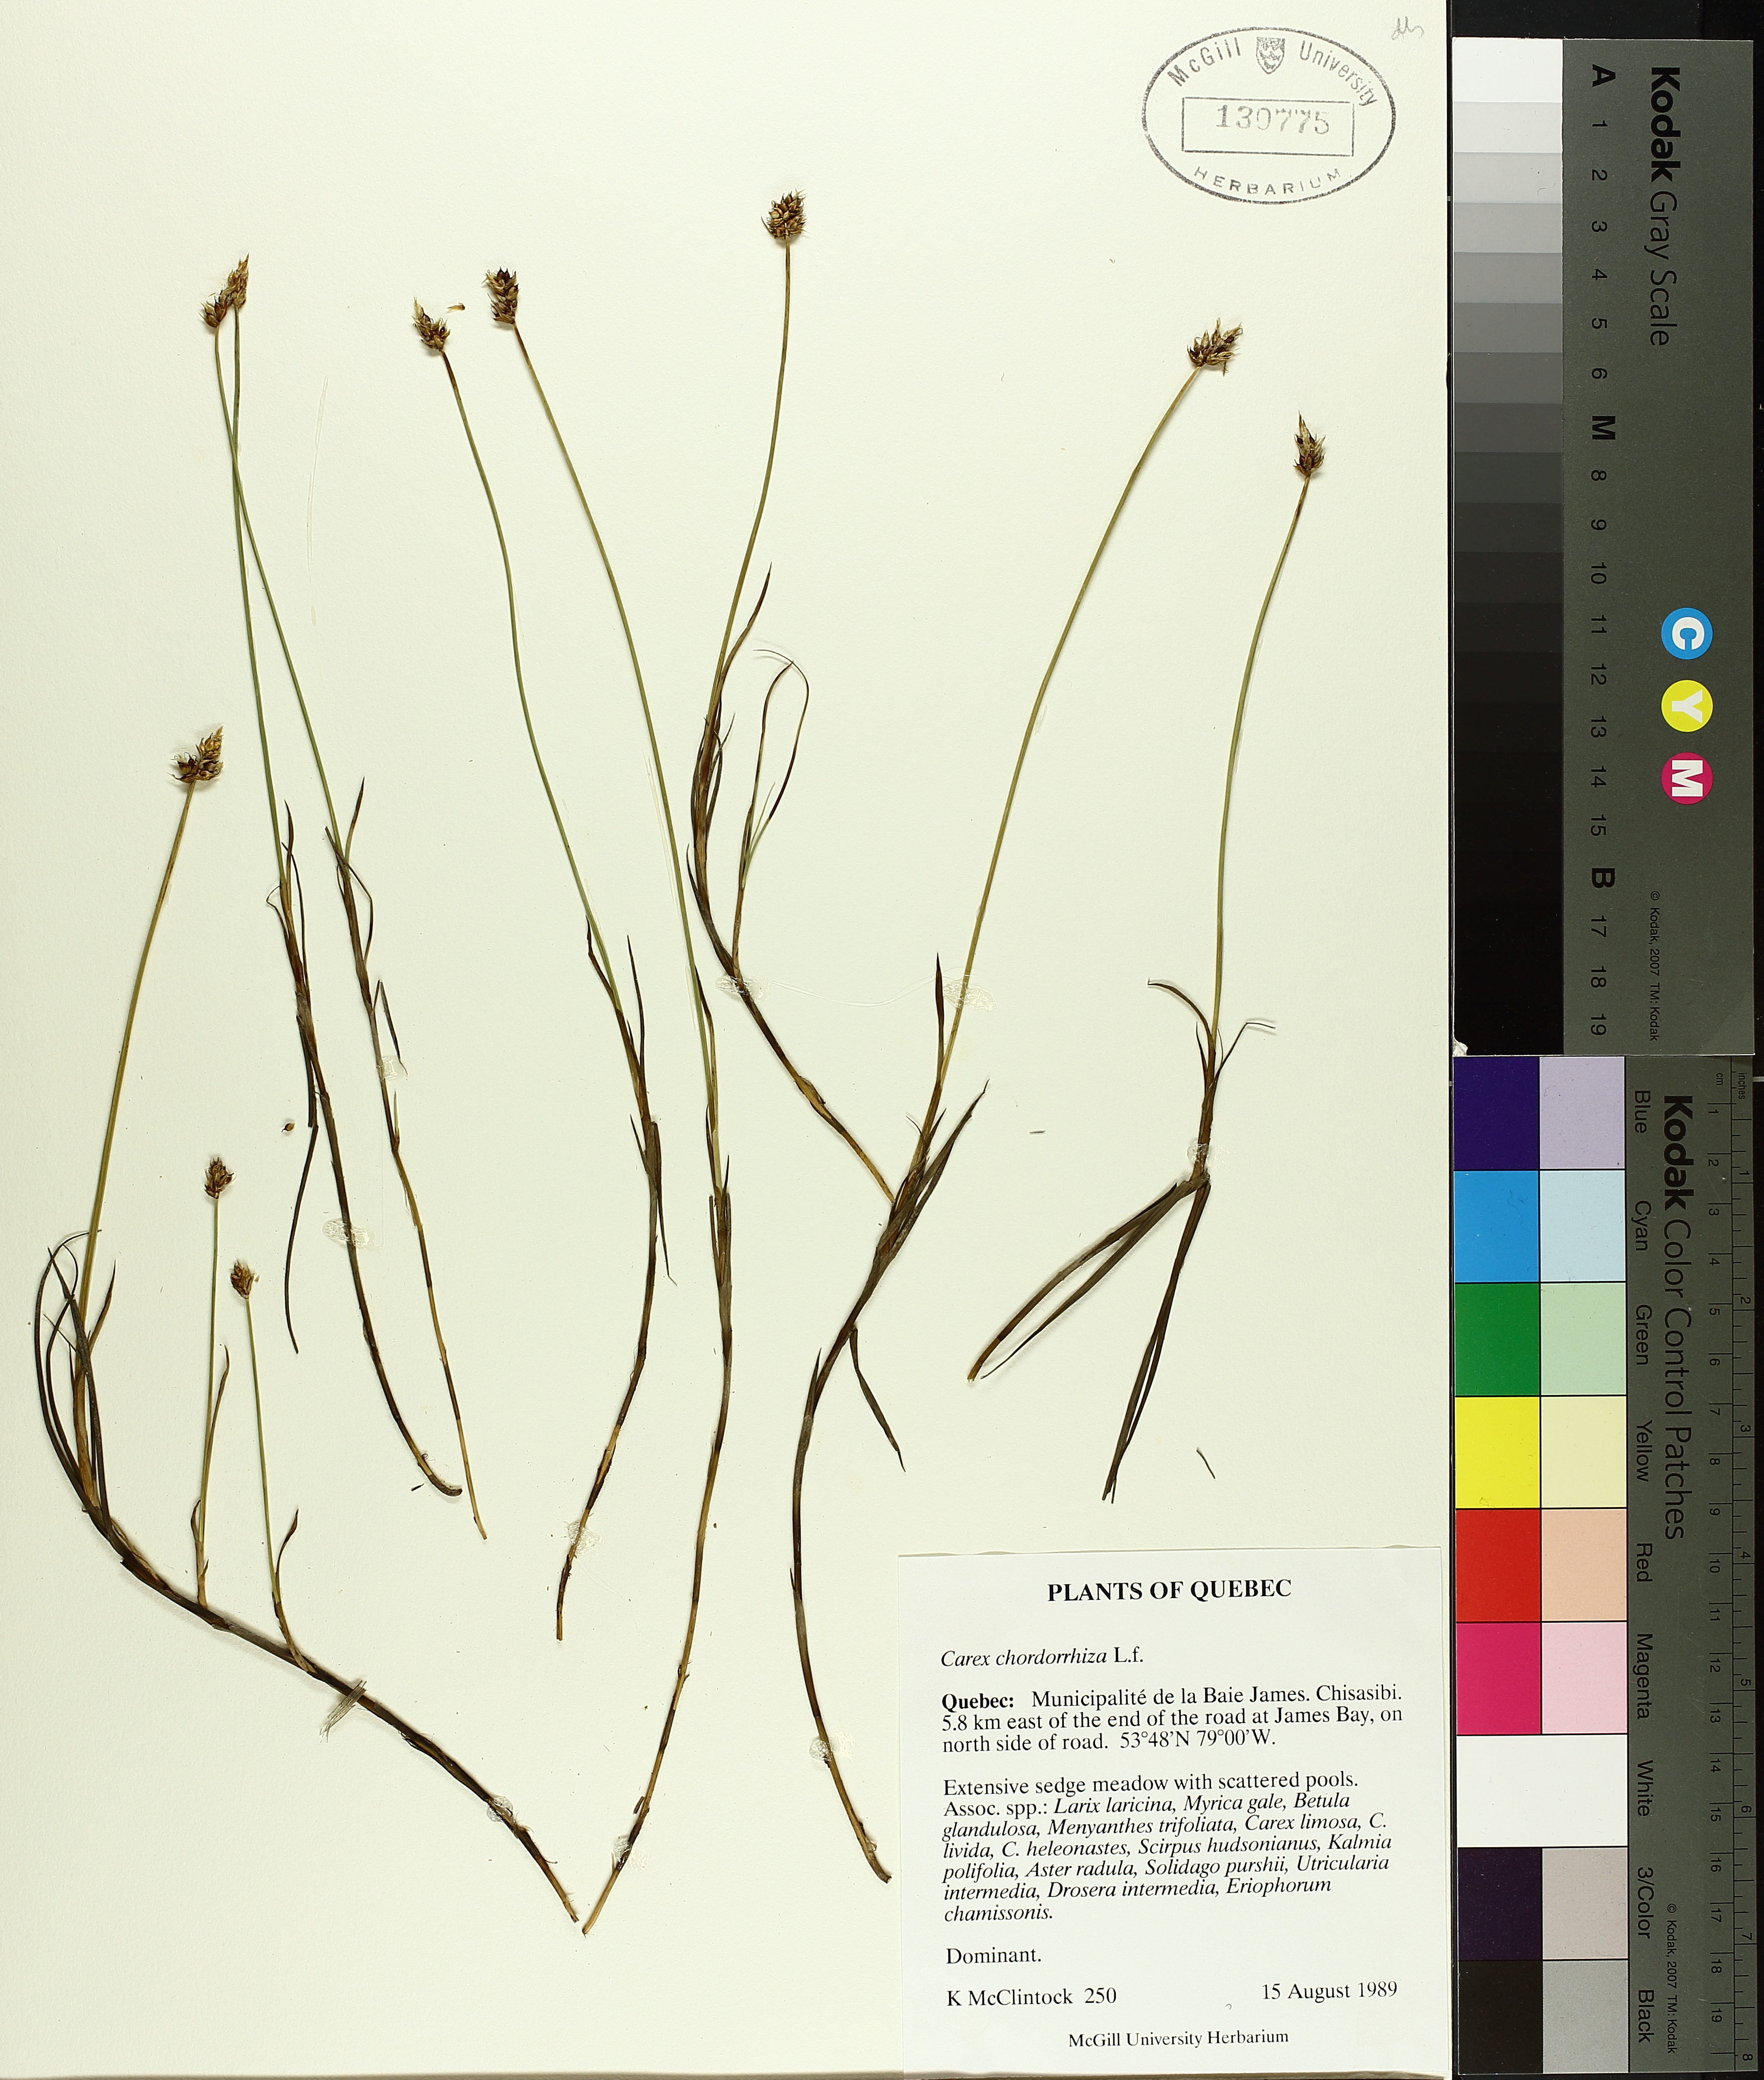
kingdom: Plantae
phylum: Tracheophyta
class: Liliopsida
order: Poales
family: Cyperaceae
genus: Carex
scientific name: Carex
